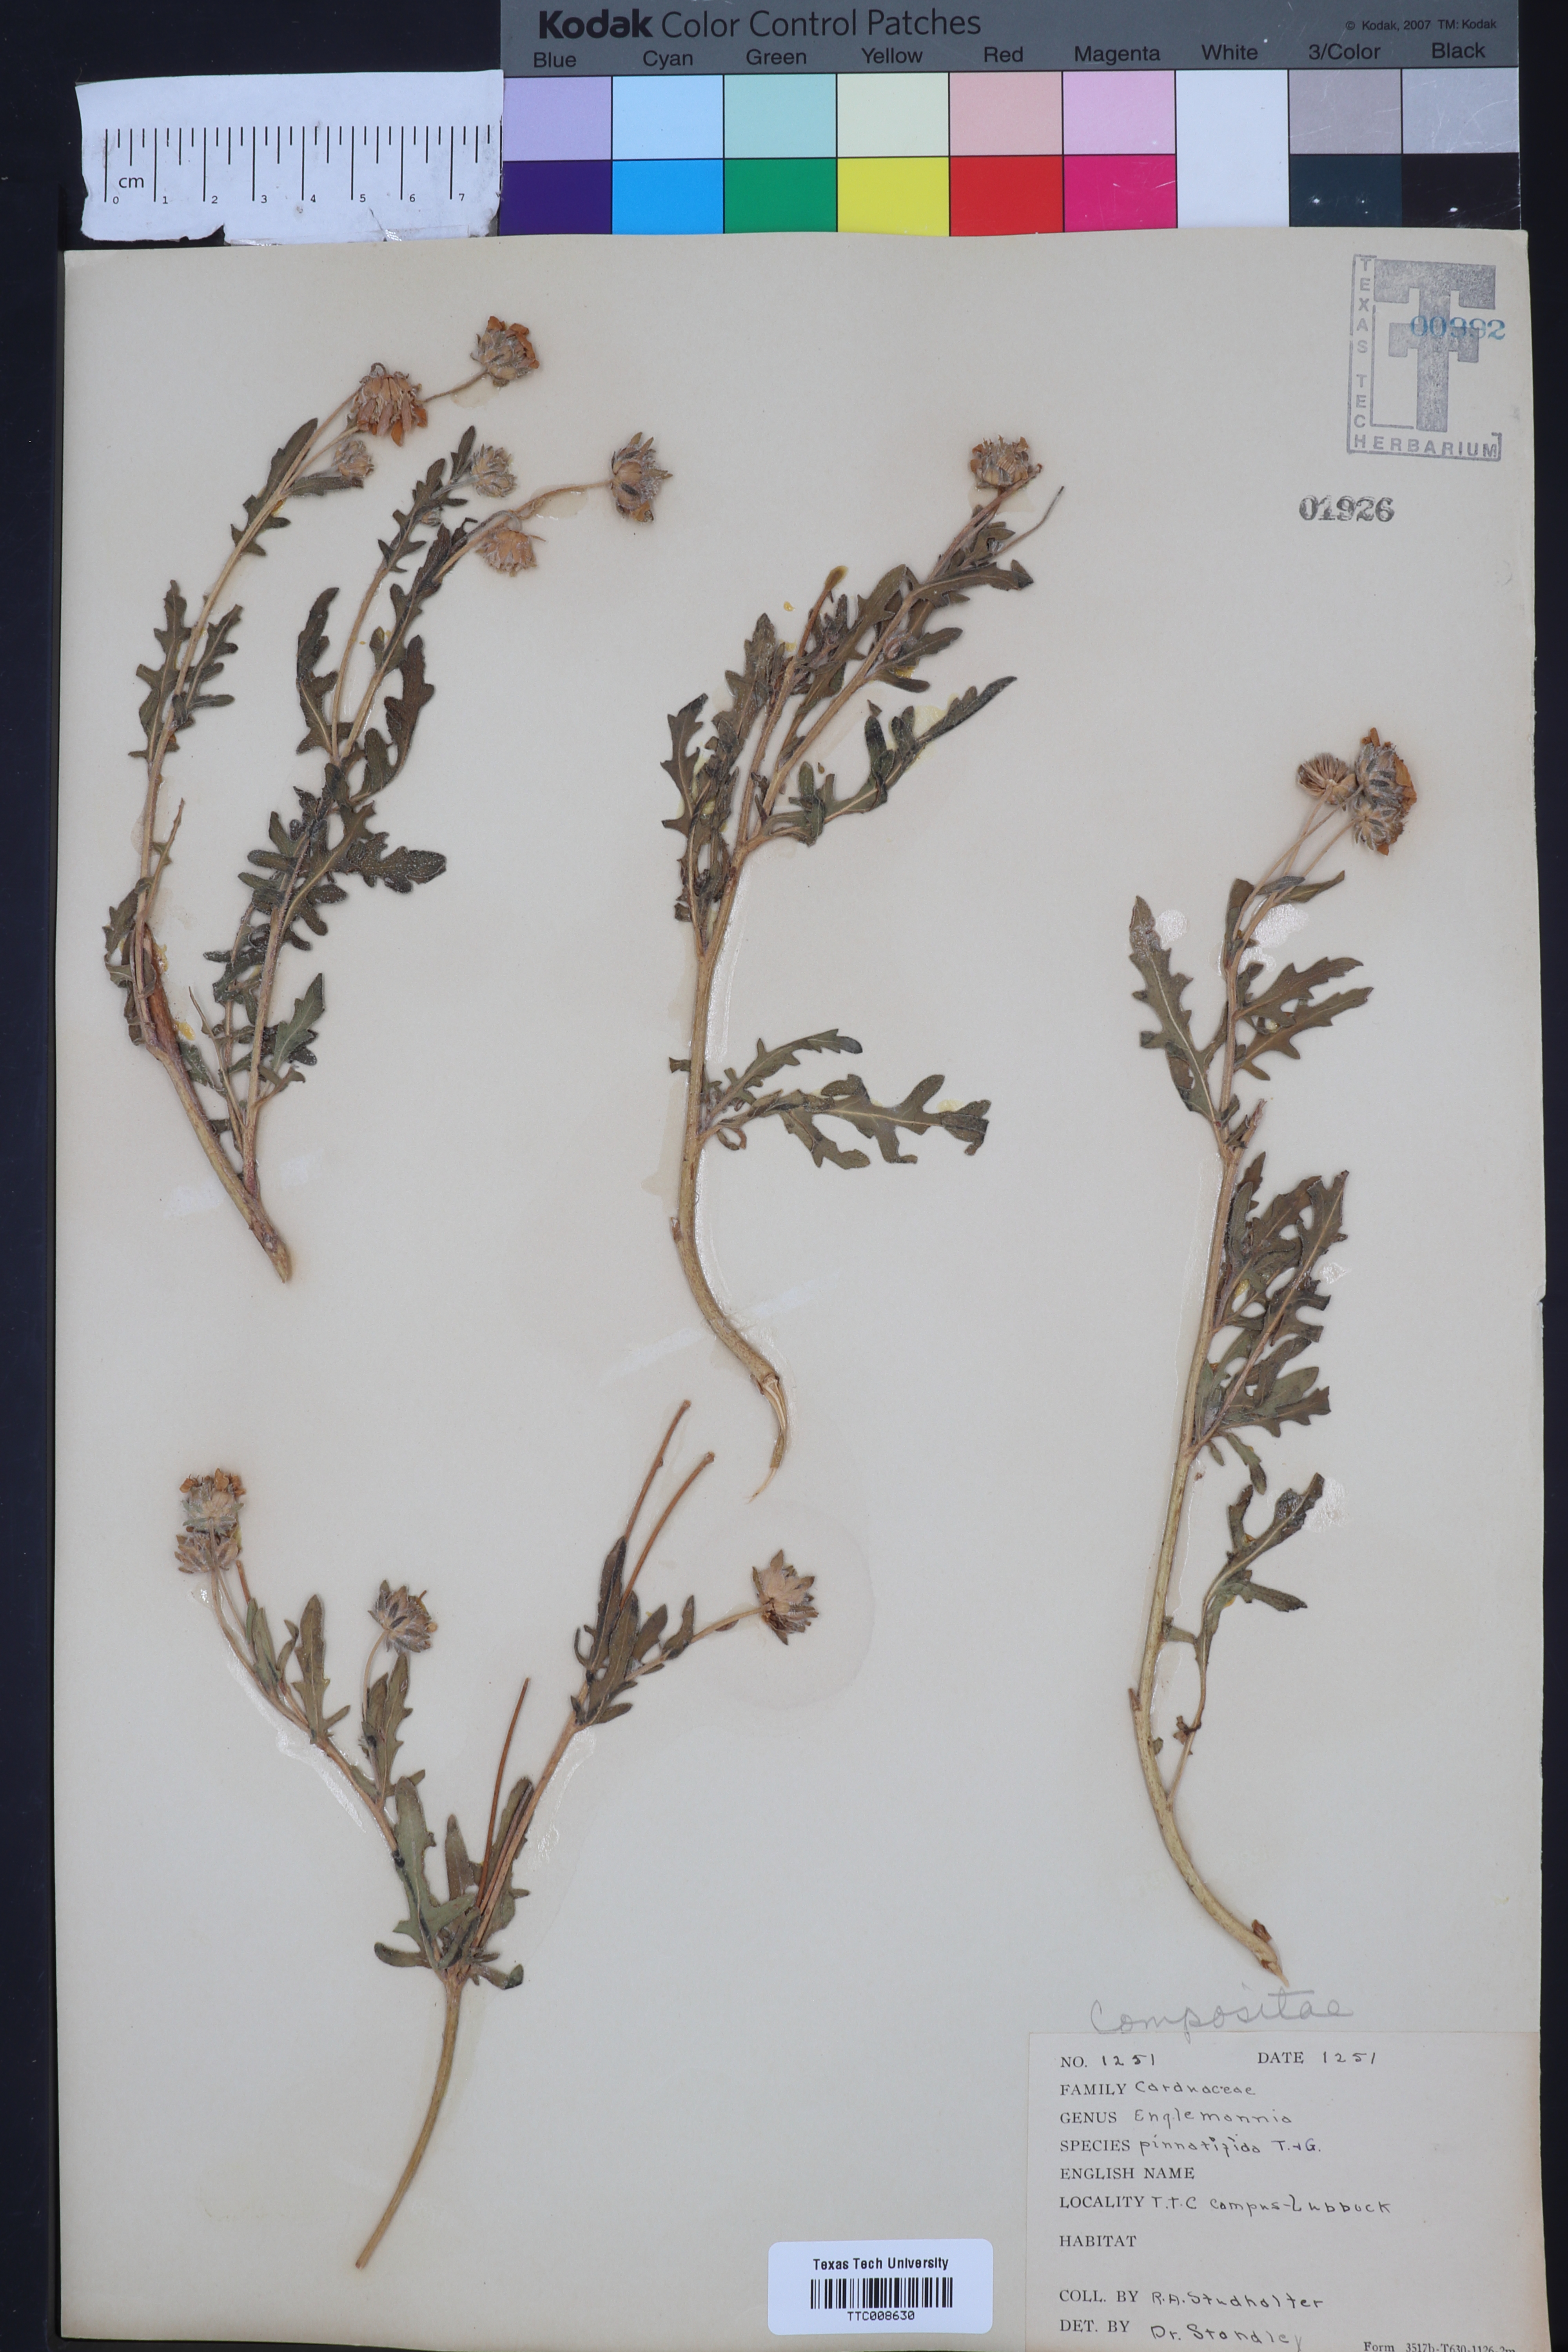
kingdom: Plantae
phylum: Tracheophyta
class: Magnoliopsida
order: Asterales
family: Asteraceae
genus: Engelmannia
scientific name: Engelmannia peristenia
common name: Engelmann's daisy
